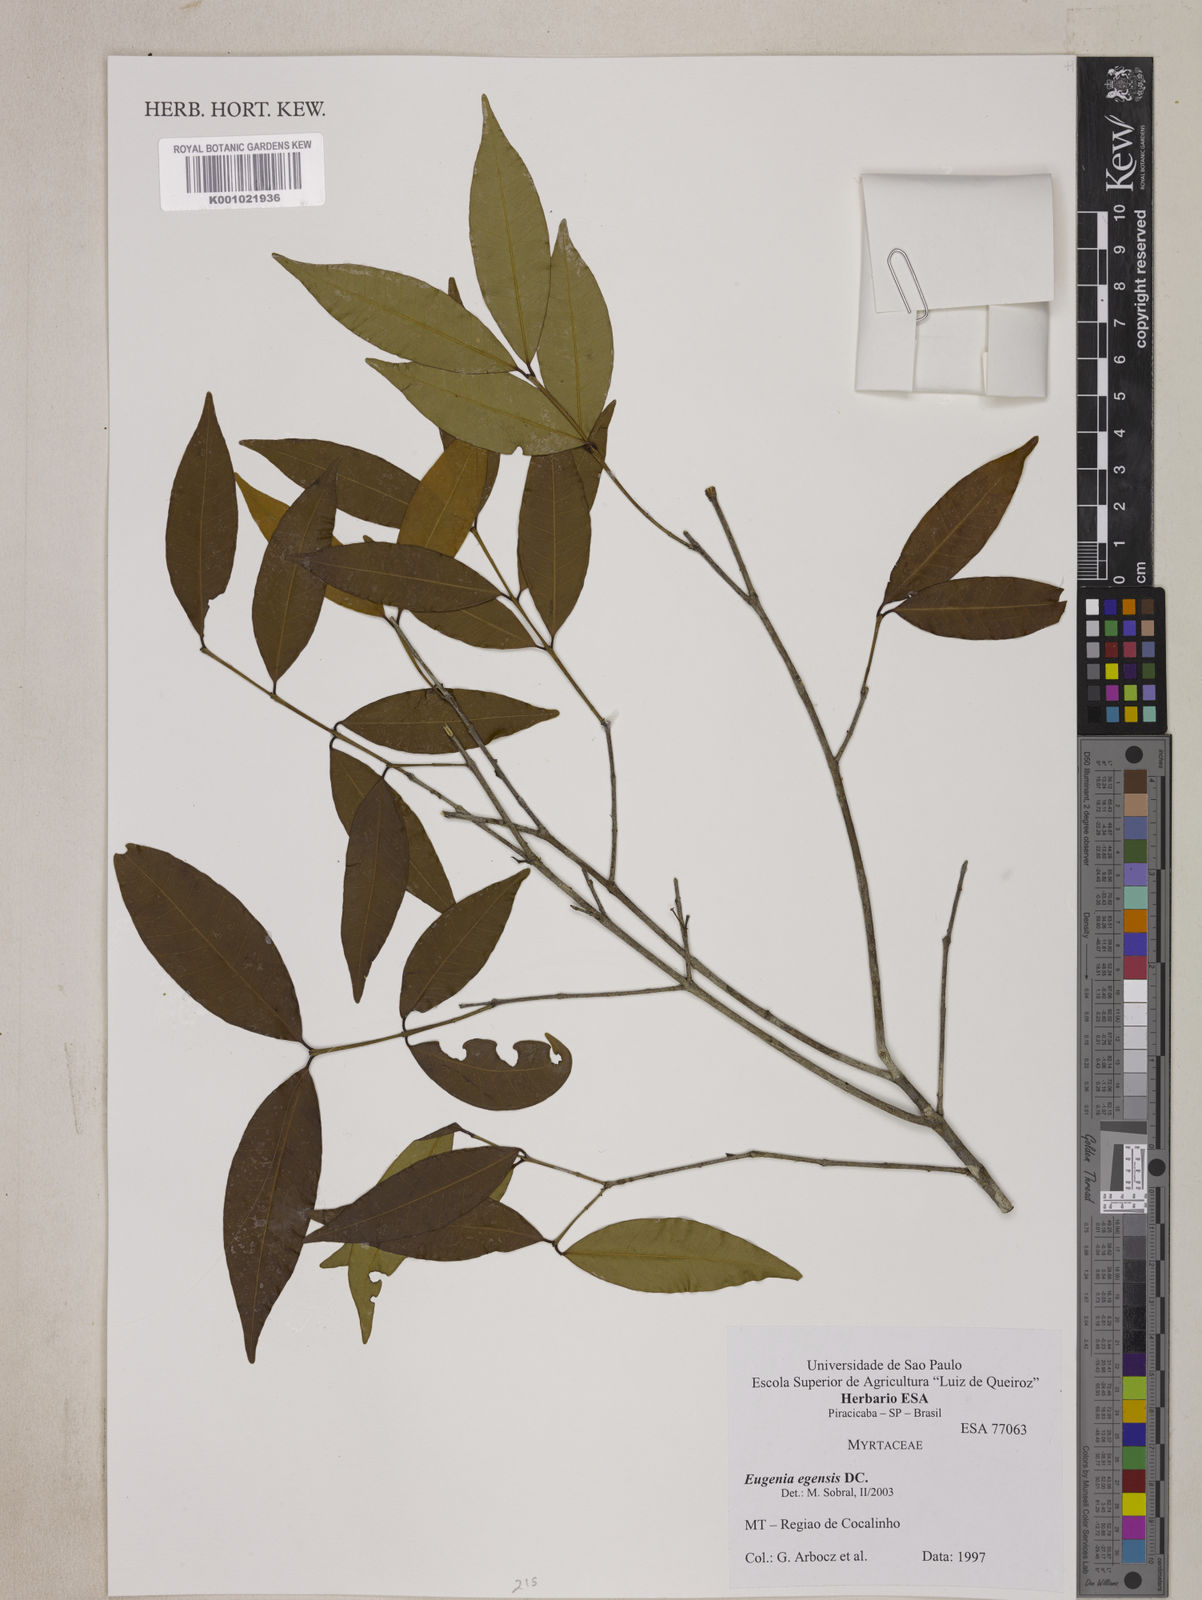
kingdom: Plantae
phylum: Tracheophyta
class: Magnoliopsida
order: Myrtales
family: Myrtaceae
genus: Eugenia
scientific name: Eugenia egensis
